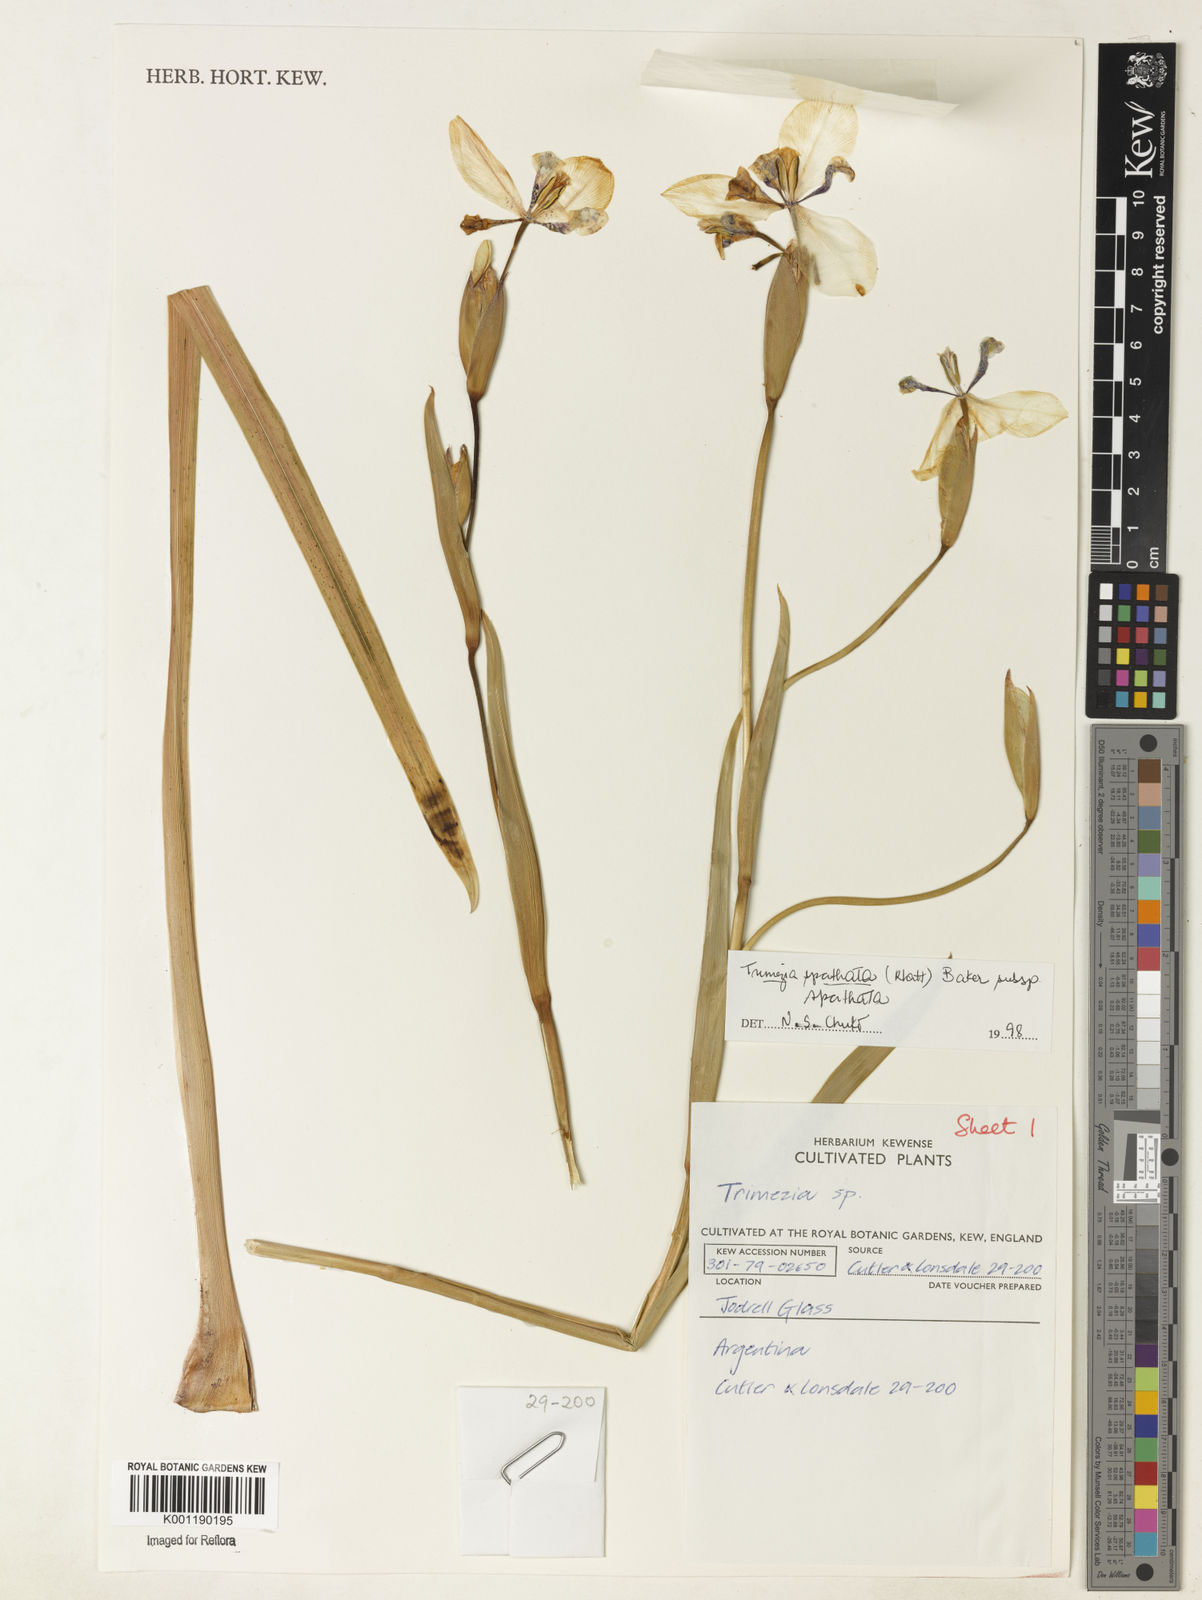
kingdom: Plantae
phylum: Tracheophyta
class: Liliopsida
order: Asparagales
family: Iridaceae
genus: Trimezia
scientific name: Trimezia spathata
